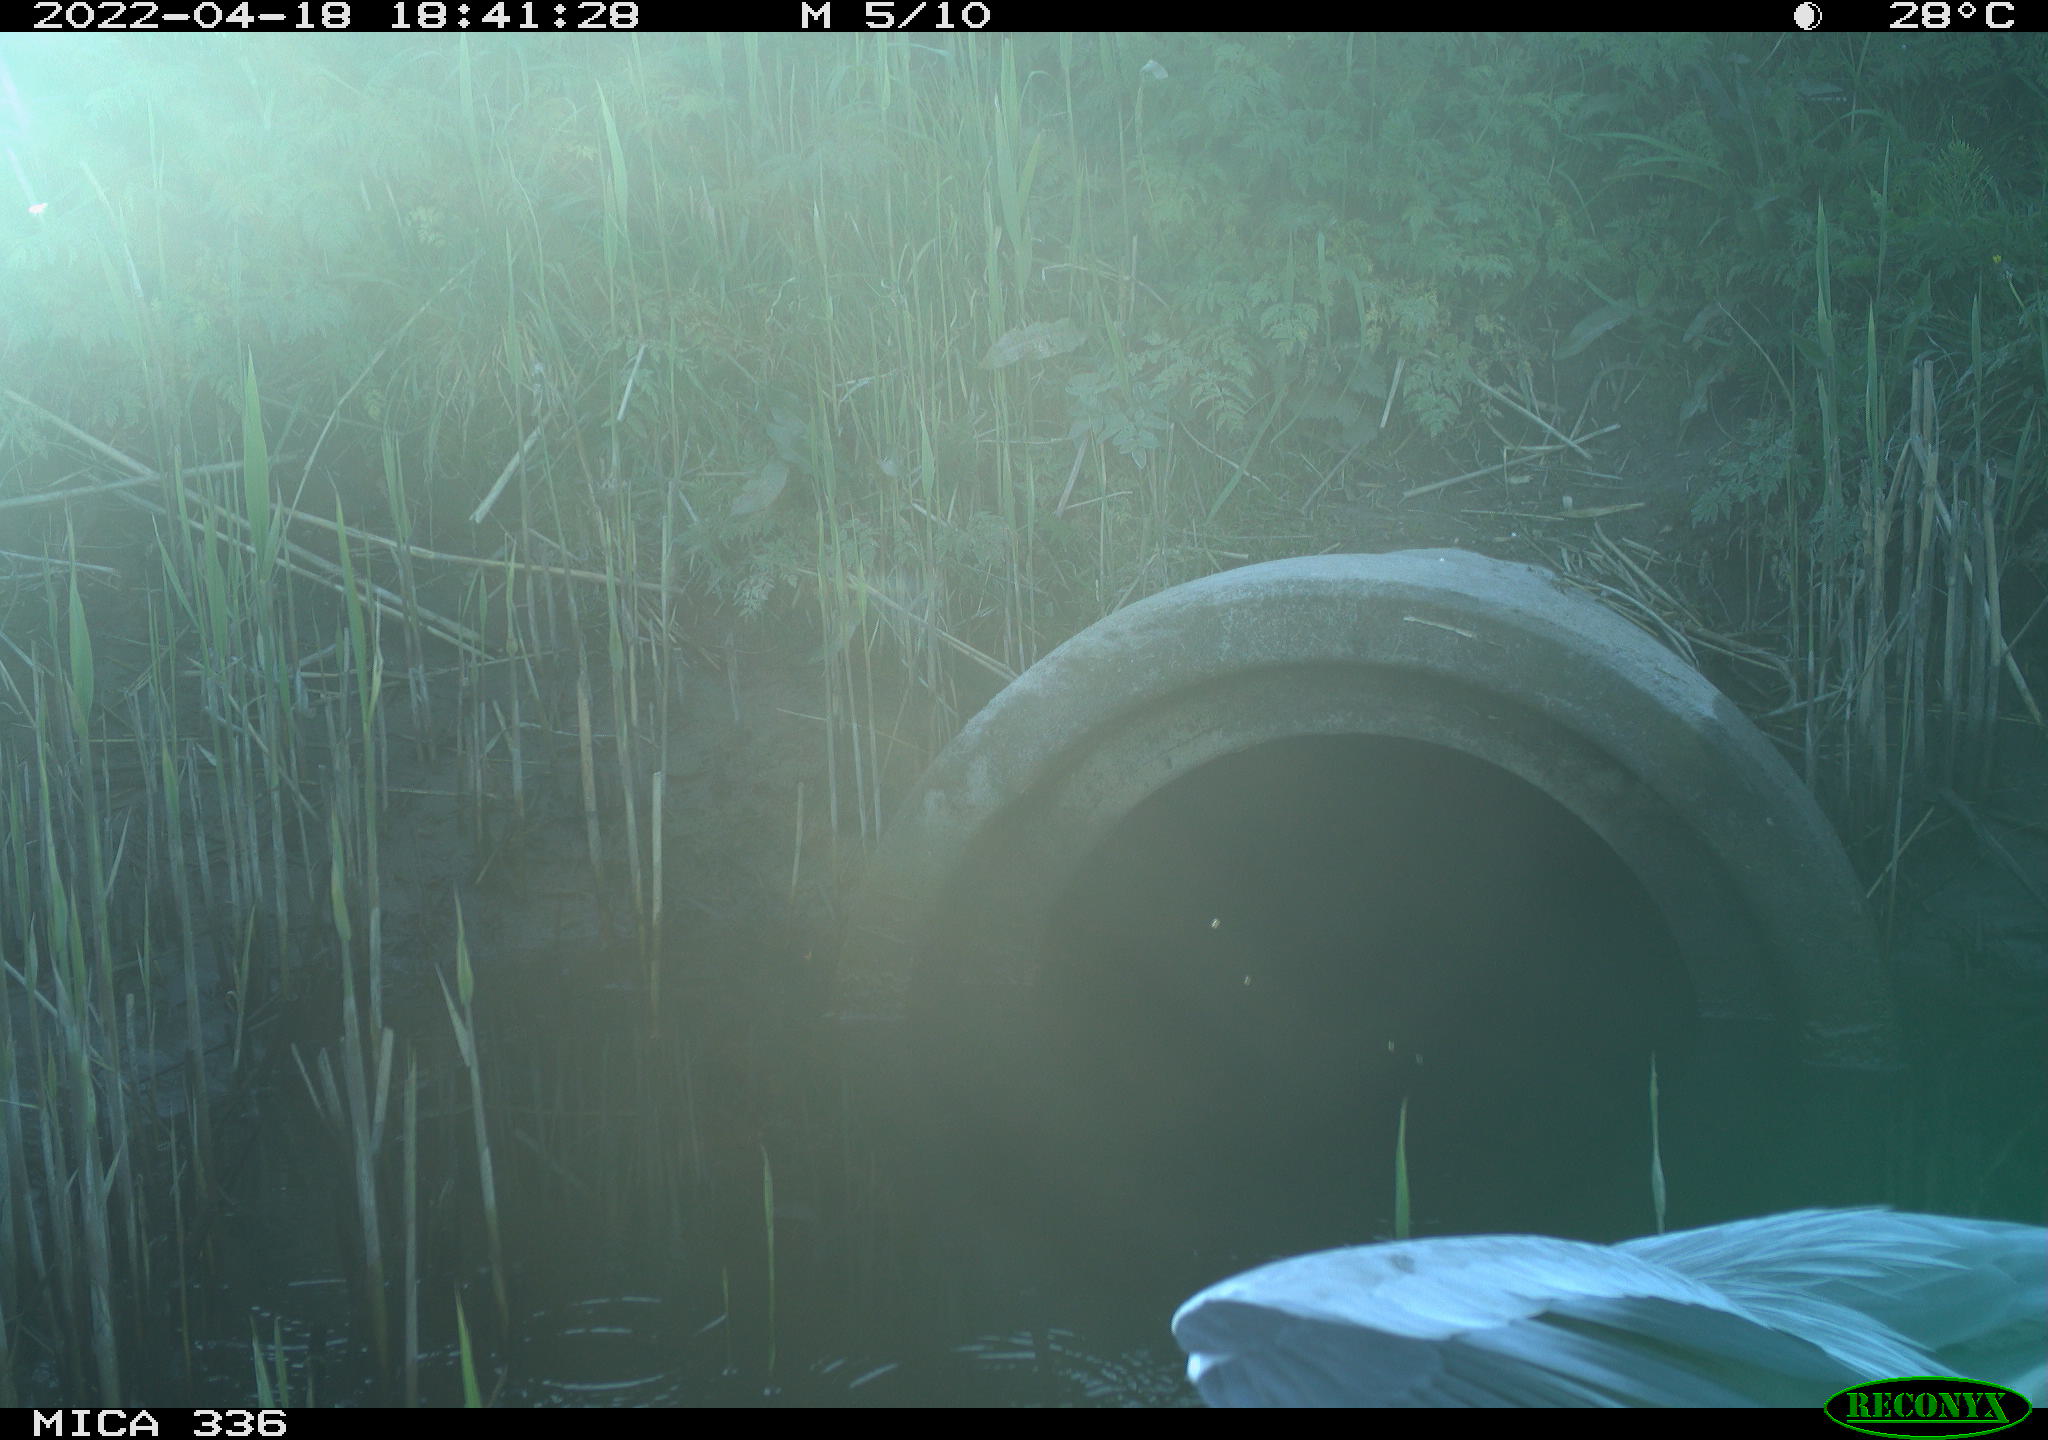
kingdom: Animalia
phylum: Chordata
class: Aves
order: Pelecaniformes
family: Ardeidae
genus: Ardea
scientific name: Ardea cinerea
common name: Grey heron
